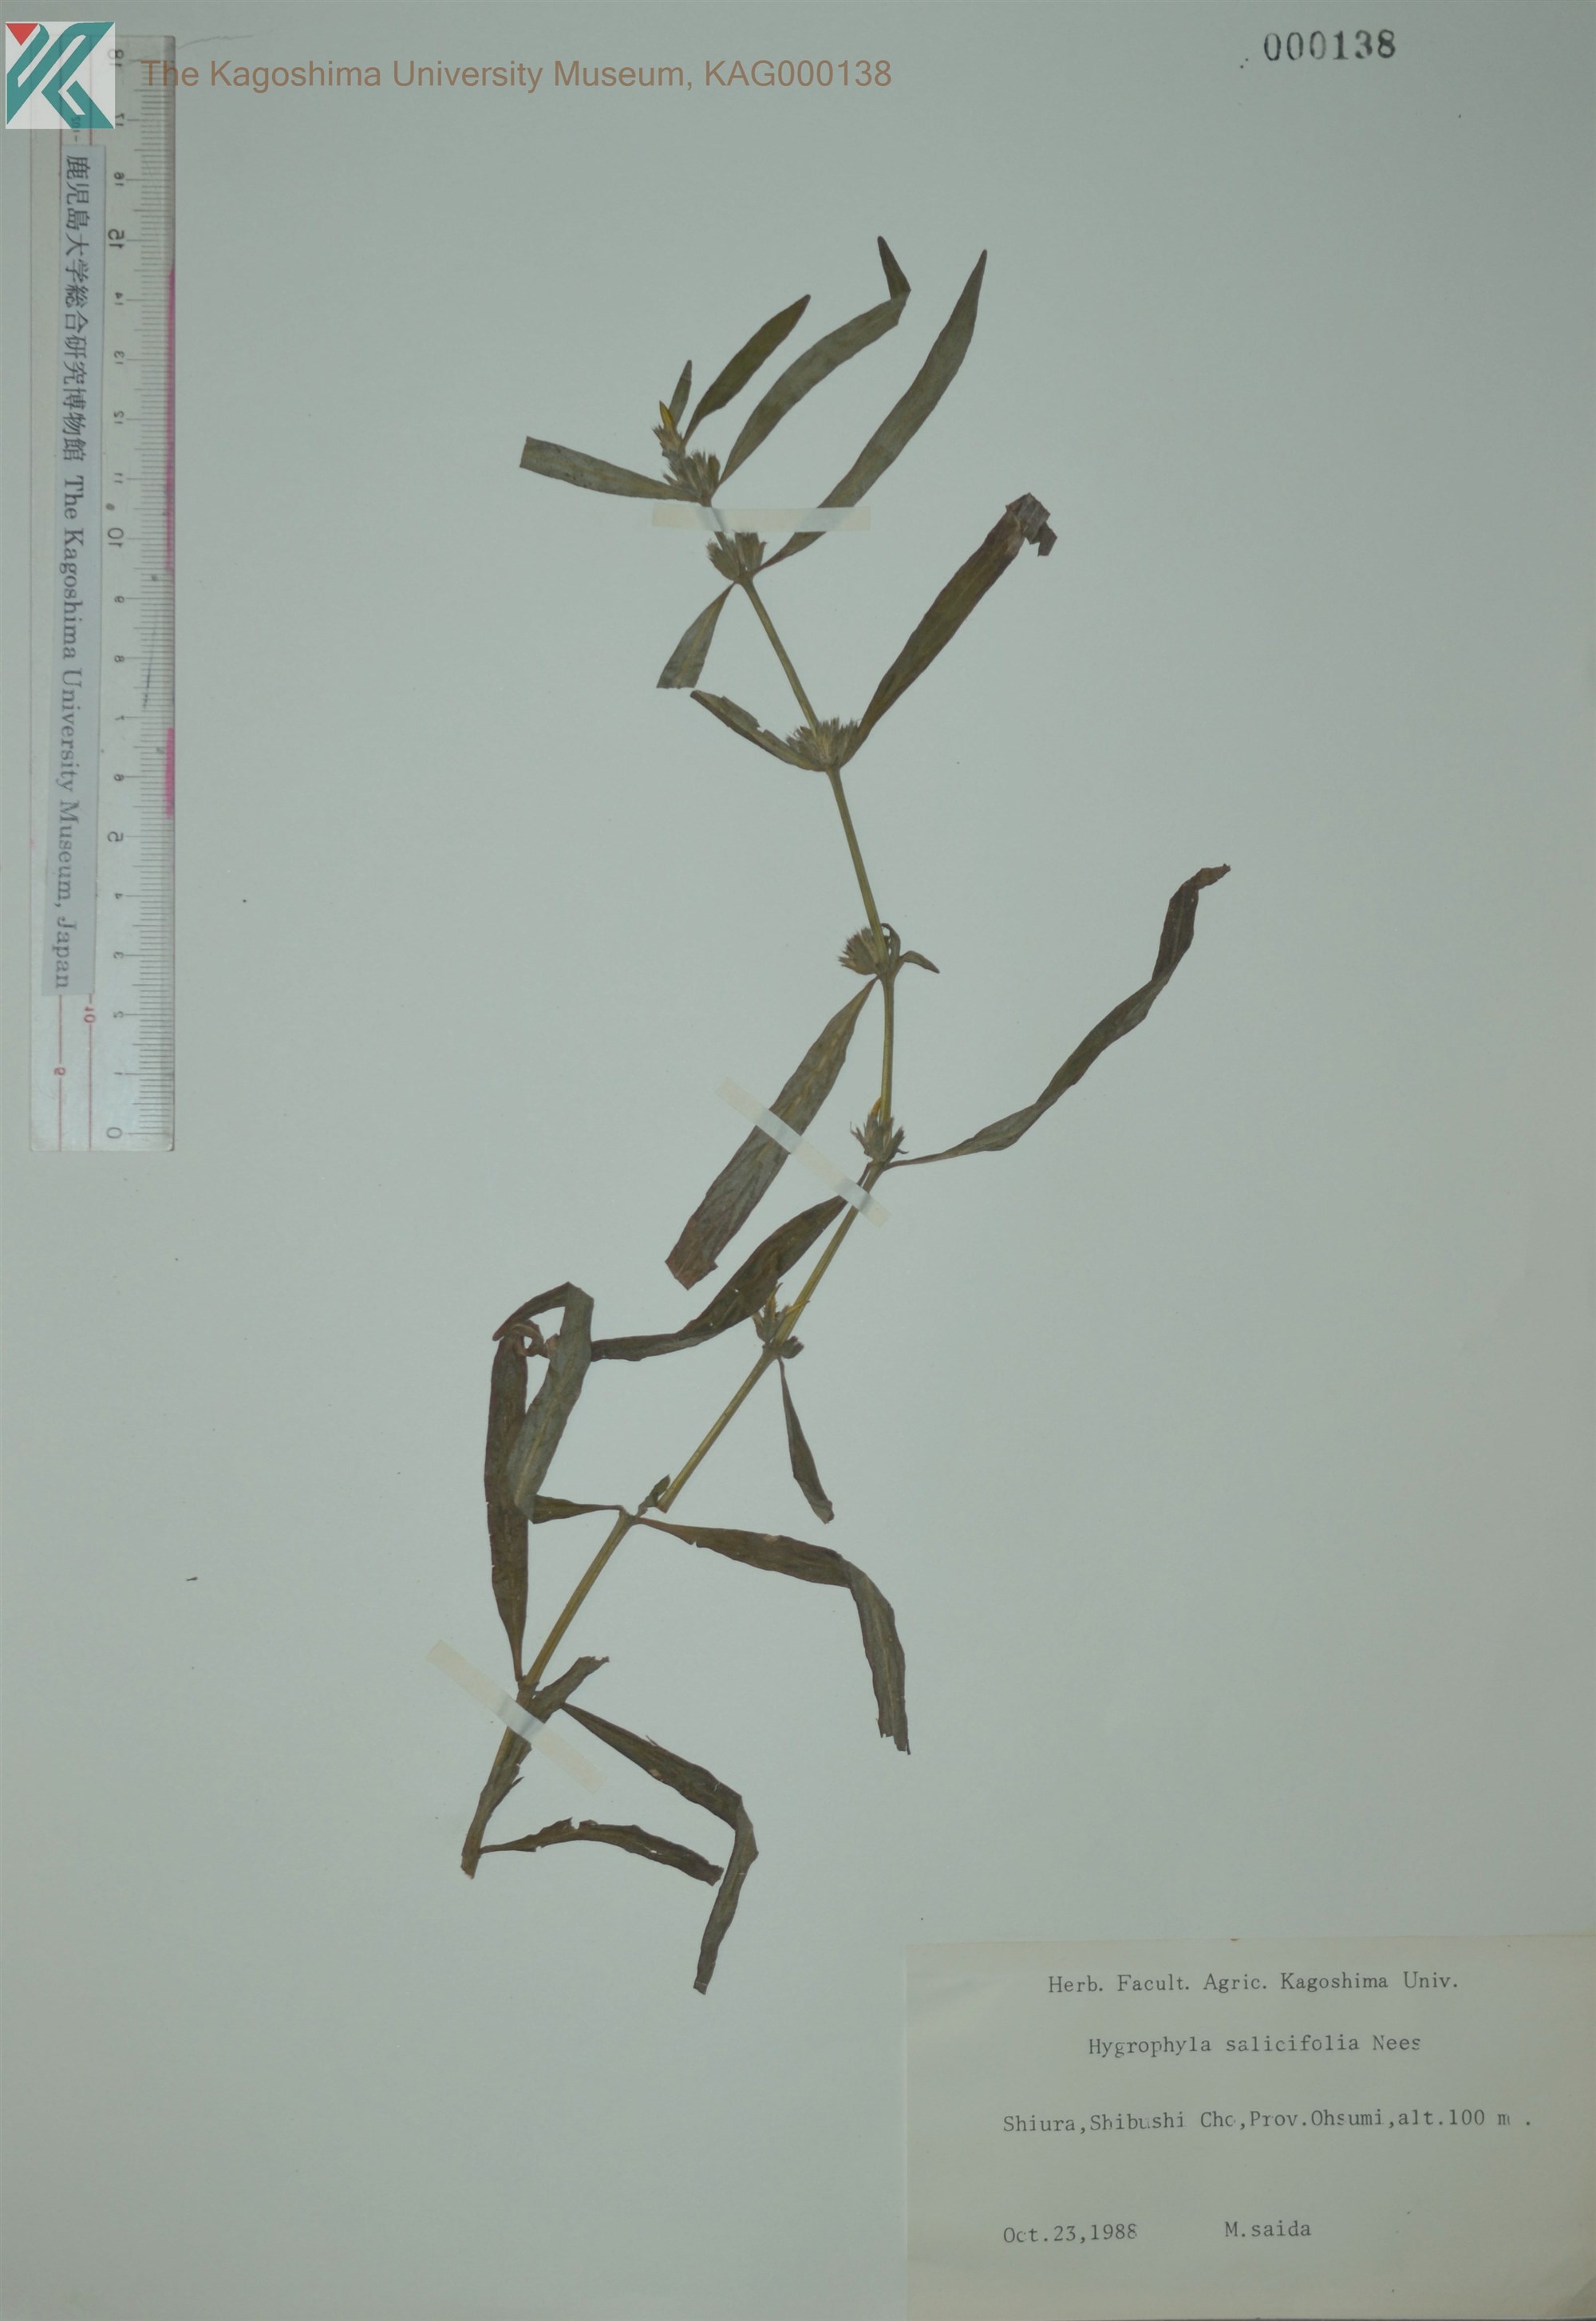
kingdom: Plantae
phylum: Tracheophyta
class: Magnoliopsida
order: Lamiales
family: Acanthaceae
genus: Hygrophila
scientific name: Hygrophila ringens
